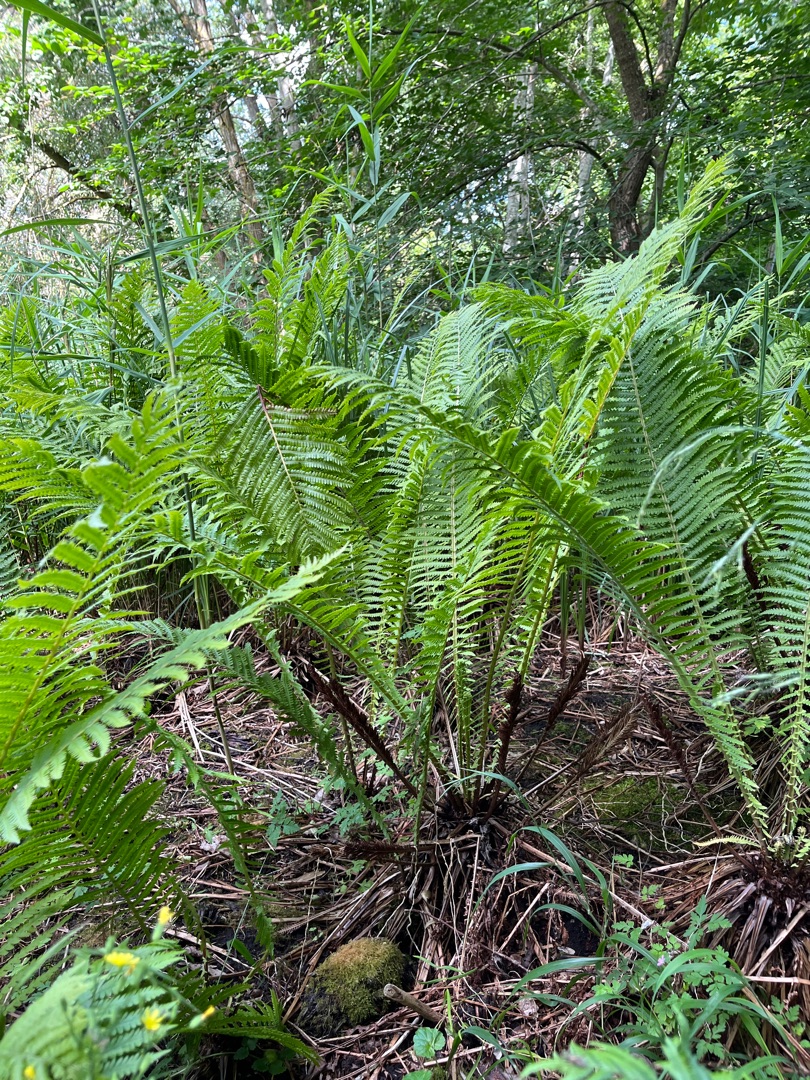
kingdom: Plantae
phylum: Tracheophyta
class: Polypodiopsida
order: Polypodiales
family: Onocleaceae
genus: Matteuccia
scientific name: Matteuccia struthiopteris
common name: Strudsvinge
